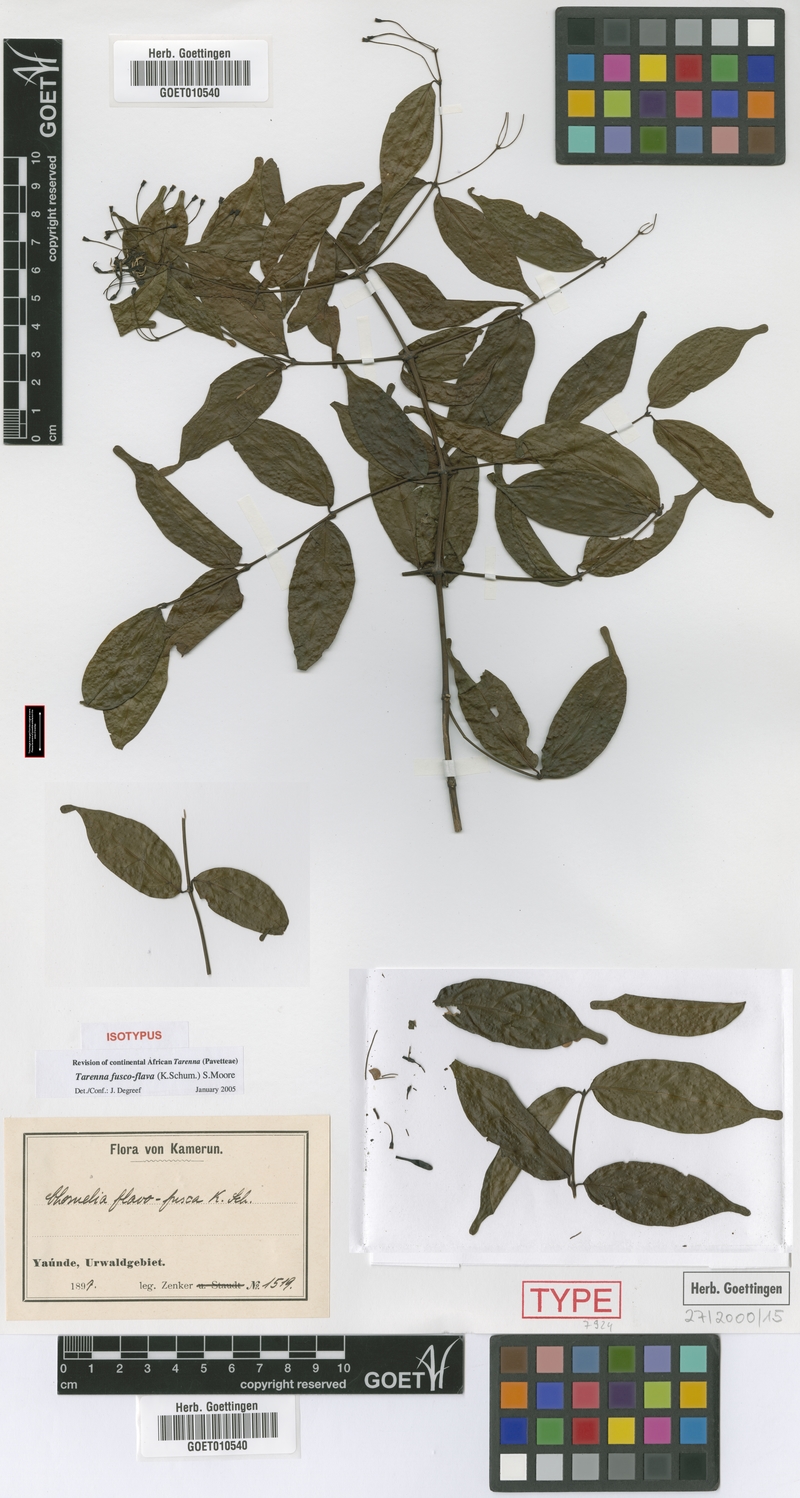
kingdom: Plantae
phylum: Tracheophyta
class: Magnoliopsida
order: Gentianales
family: Rubiaceae
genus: Tarenna
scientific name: Tarenna fuscoflava
